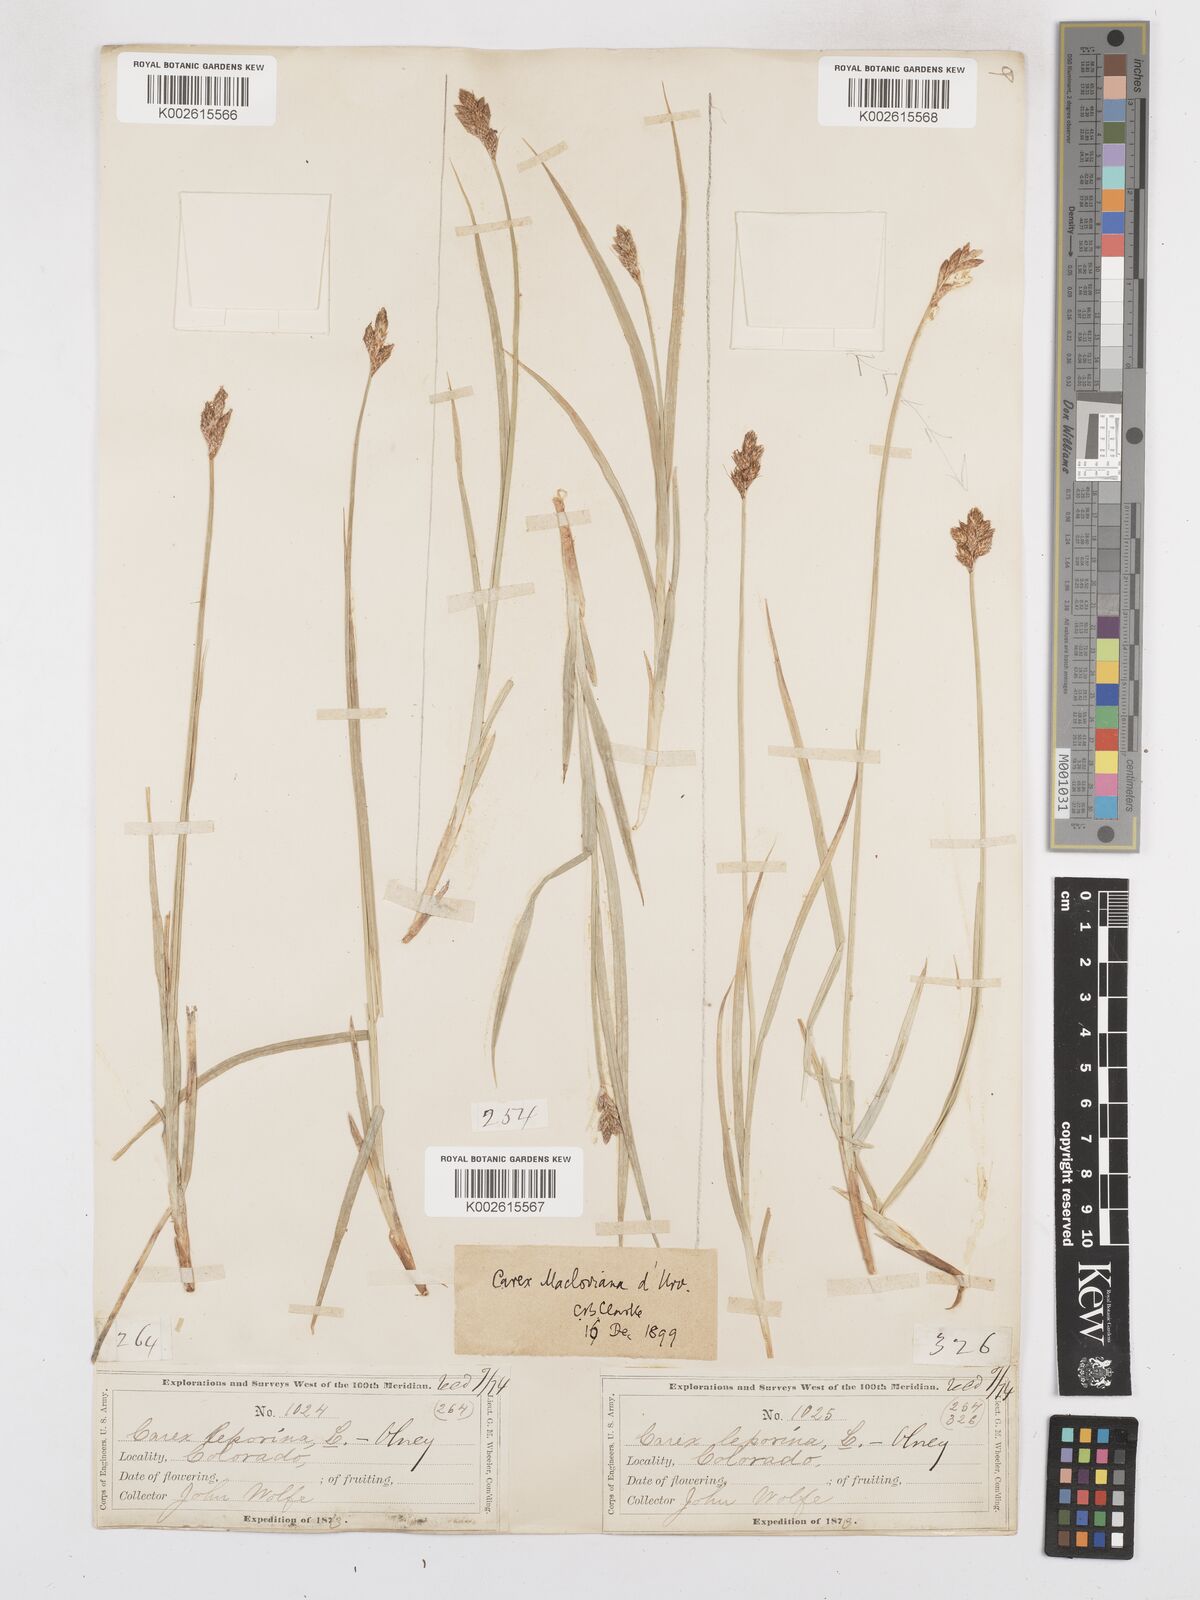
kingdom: Plantae
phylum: Tracheophyta
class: Liliopsida
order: Poales
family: Cyperaceae
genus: Carex
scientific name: Carex macloviana
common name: Falkland island sedge
